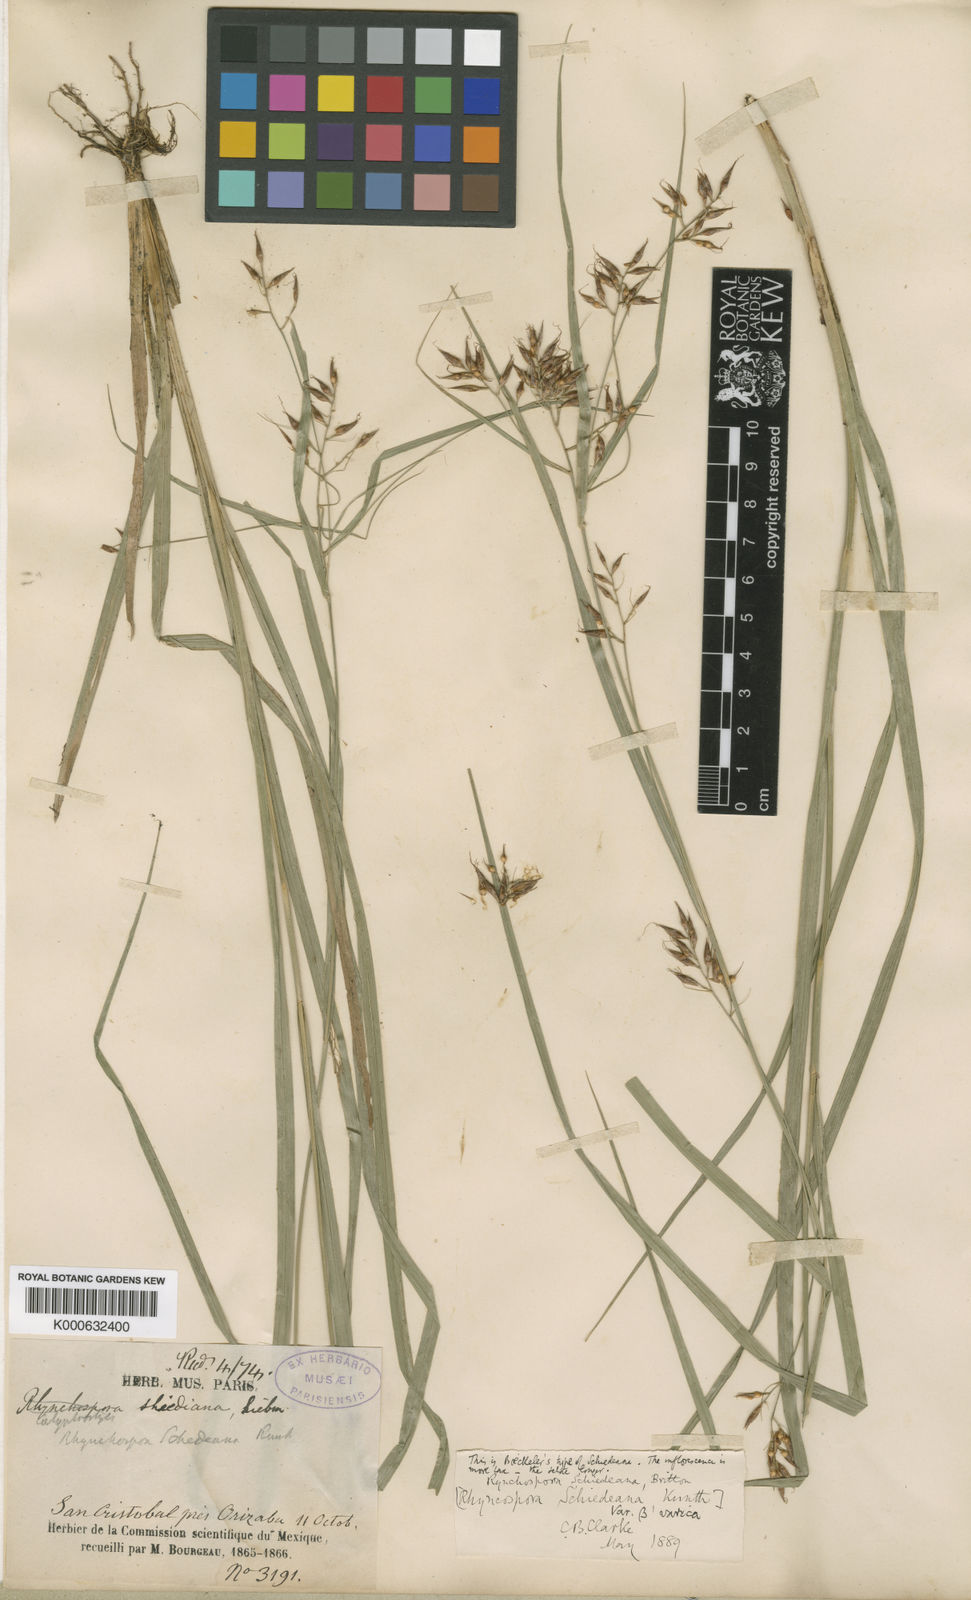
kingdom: Plantae
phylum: Tracheophyta
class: Liliopsida
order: Poales
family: Cyperaceae
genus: Rhynchospora
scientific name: Rhynchospora schiedeana
